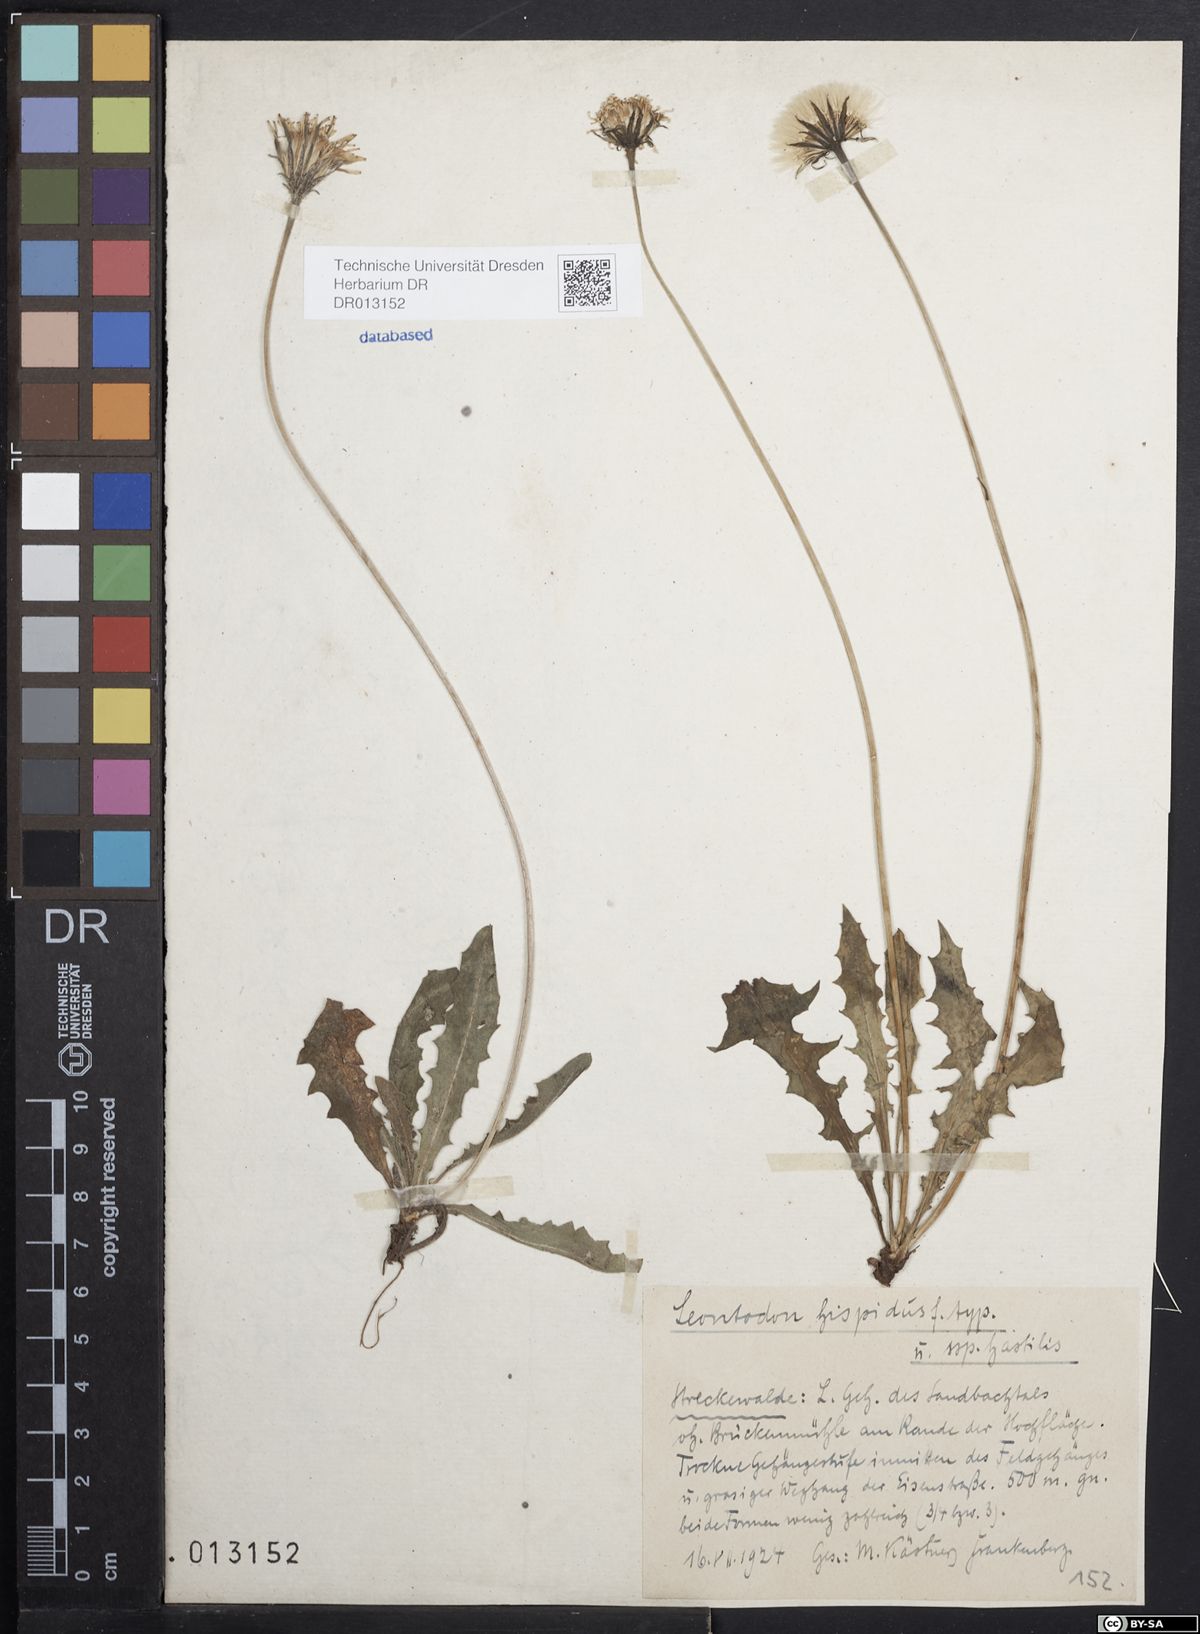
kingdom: Plantae
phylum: Tracheophyta
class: Magnoliopsida
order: Asterales
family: Asteraceae
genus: Leontodon
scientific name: Leontodon hispidus
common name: Rough hawkbit
